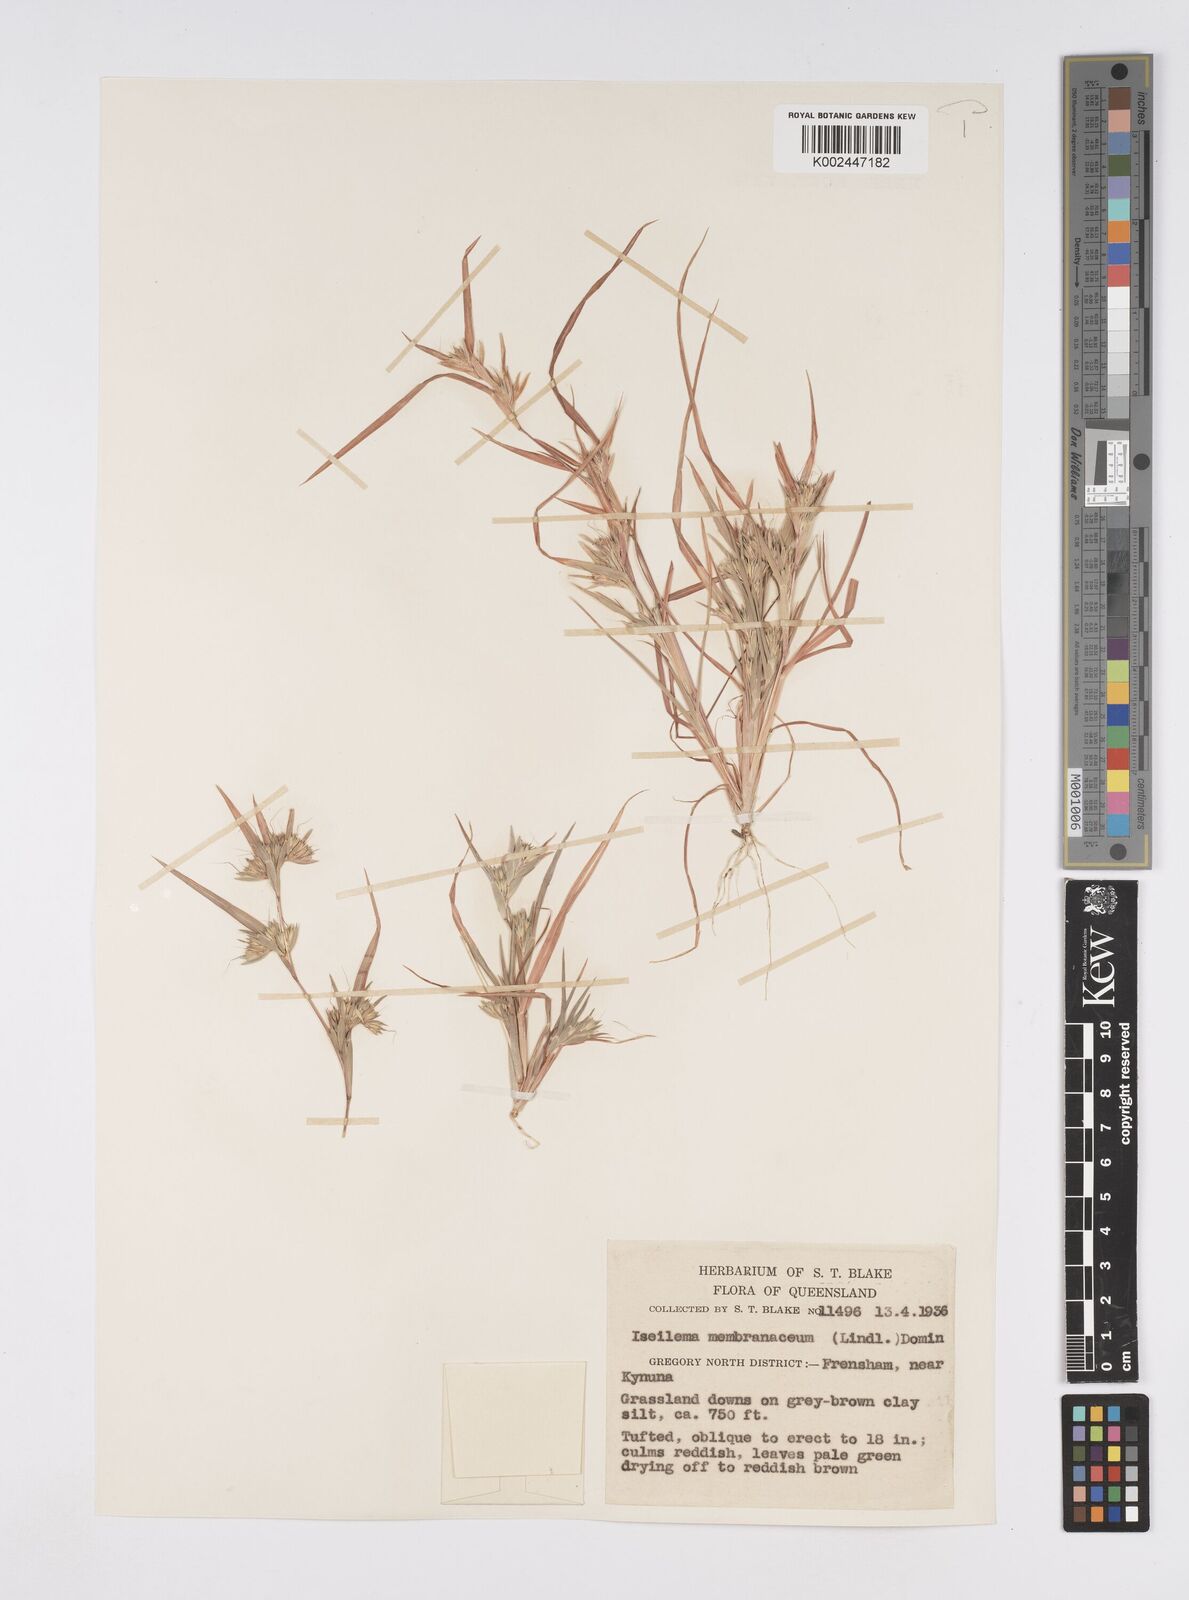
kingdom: Plantae
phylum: Tracheophyta
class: Liliopsida
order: Poales
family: Poaceae
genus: Iseilema
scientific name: Iseilema membranaceum
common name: Small flinders grass
